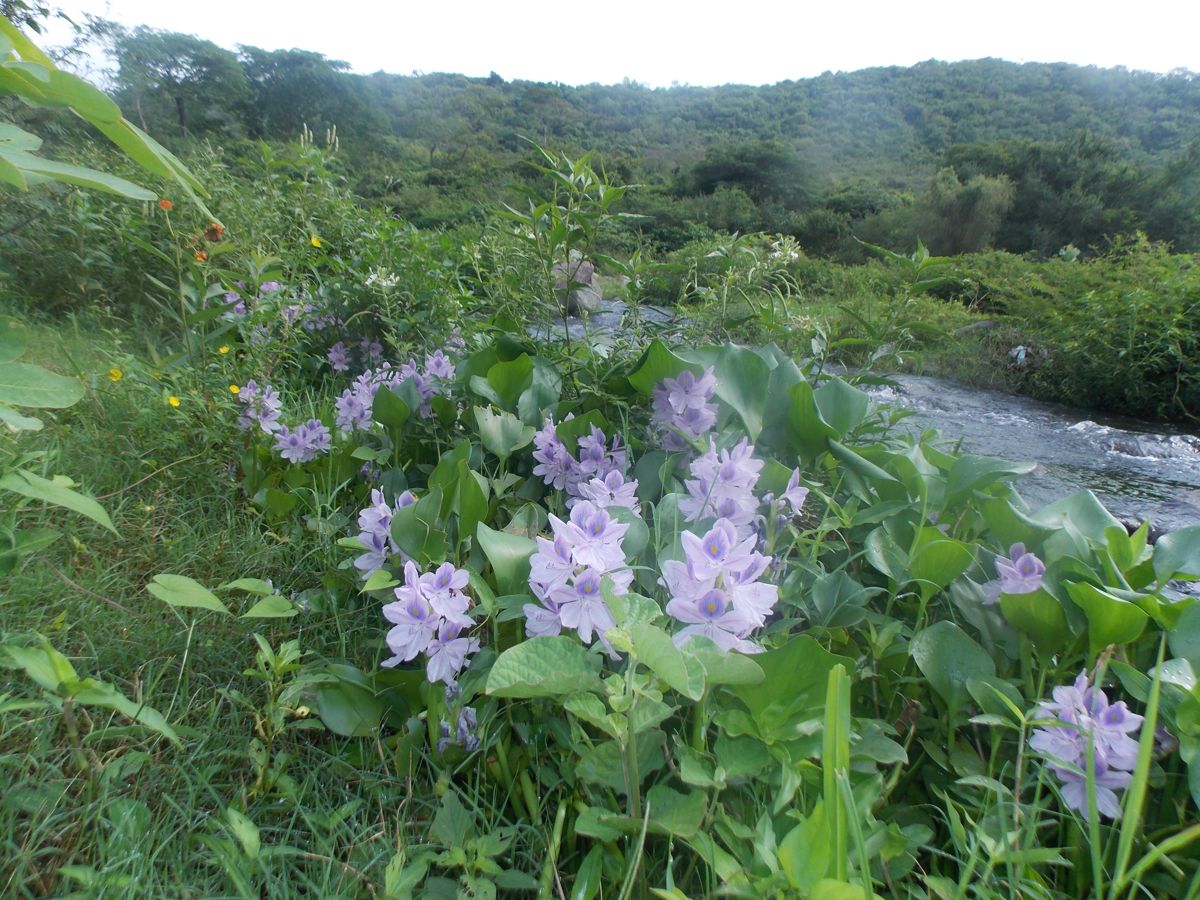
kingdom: Plantae
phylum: Tracheophyta
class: Liliopsida
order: Commelinales
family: Pontederiaceae
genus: Pontederia
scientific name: Pontederia crassipes
